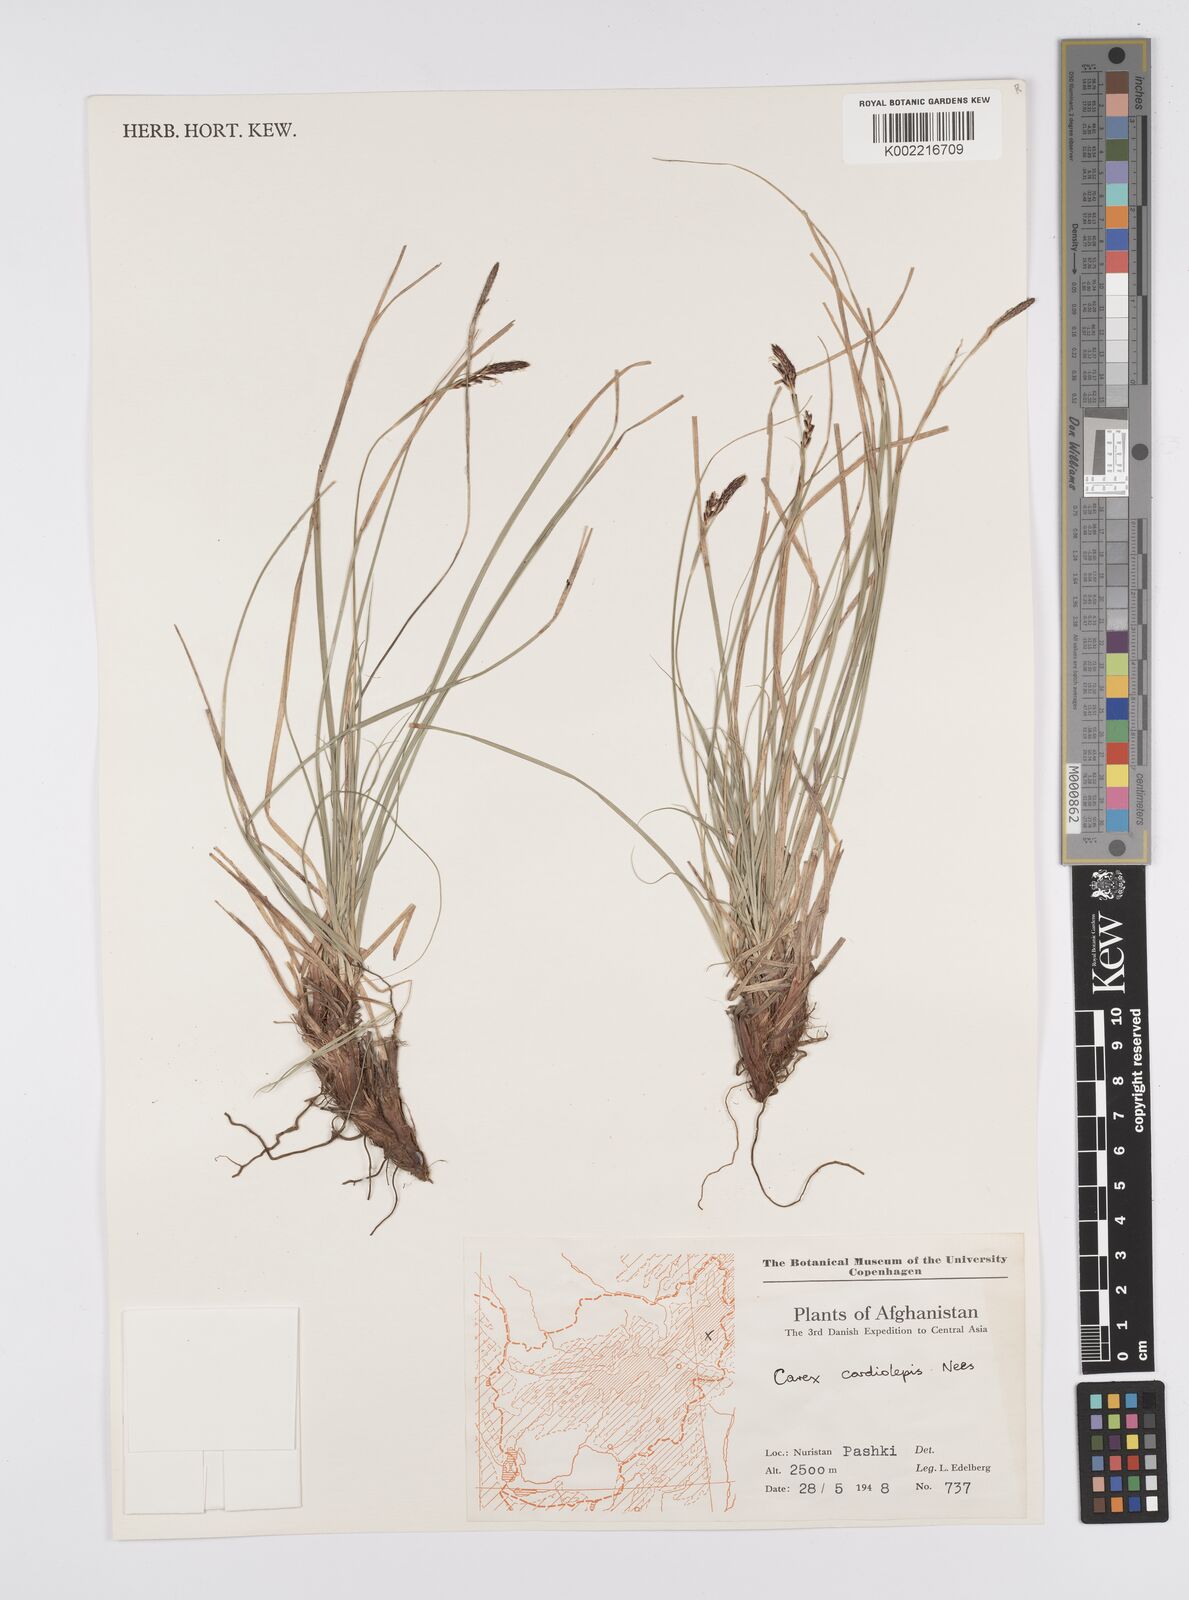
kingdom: Plantae
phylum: Tracheophyta
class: Liliopsida
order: Poales
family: Cyperaceae
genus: Carex
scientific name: Carex cardiolepis
